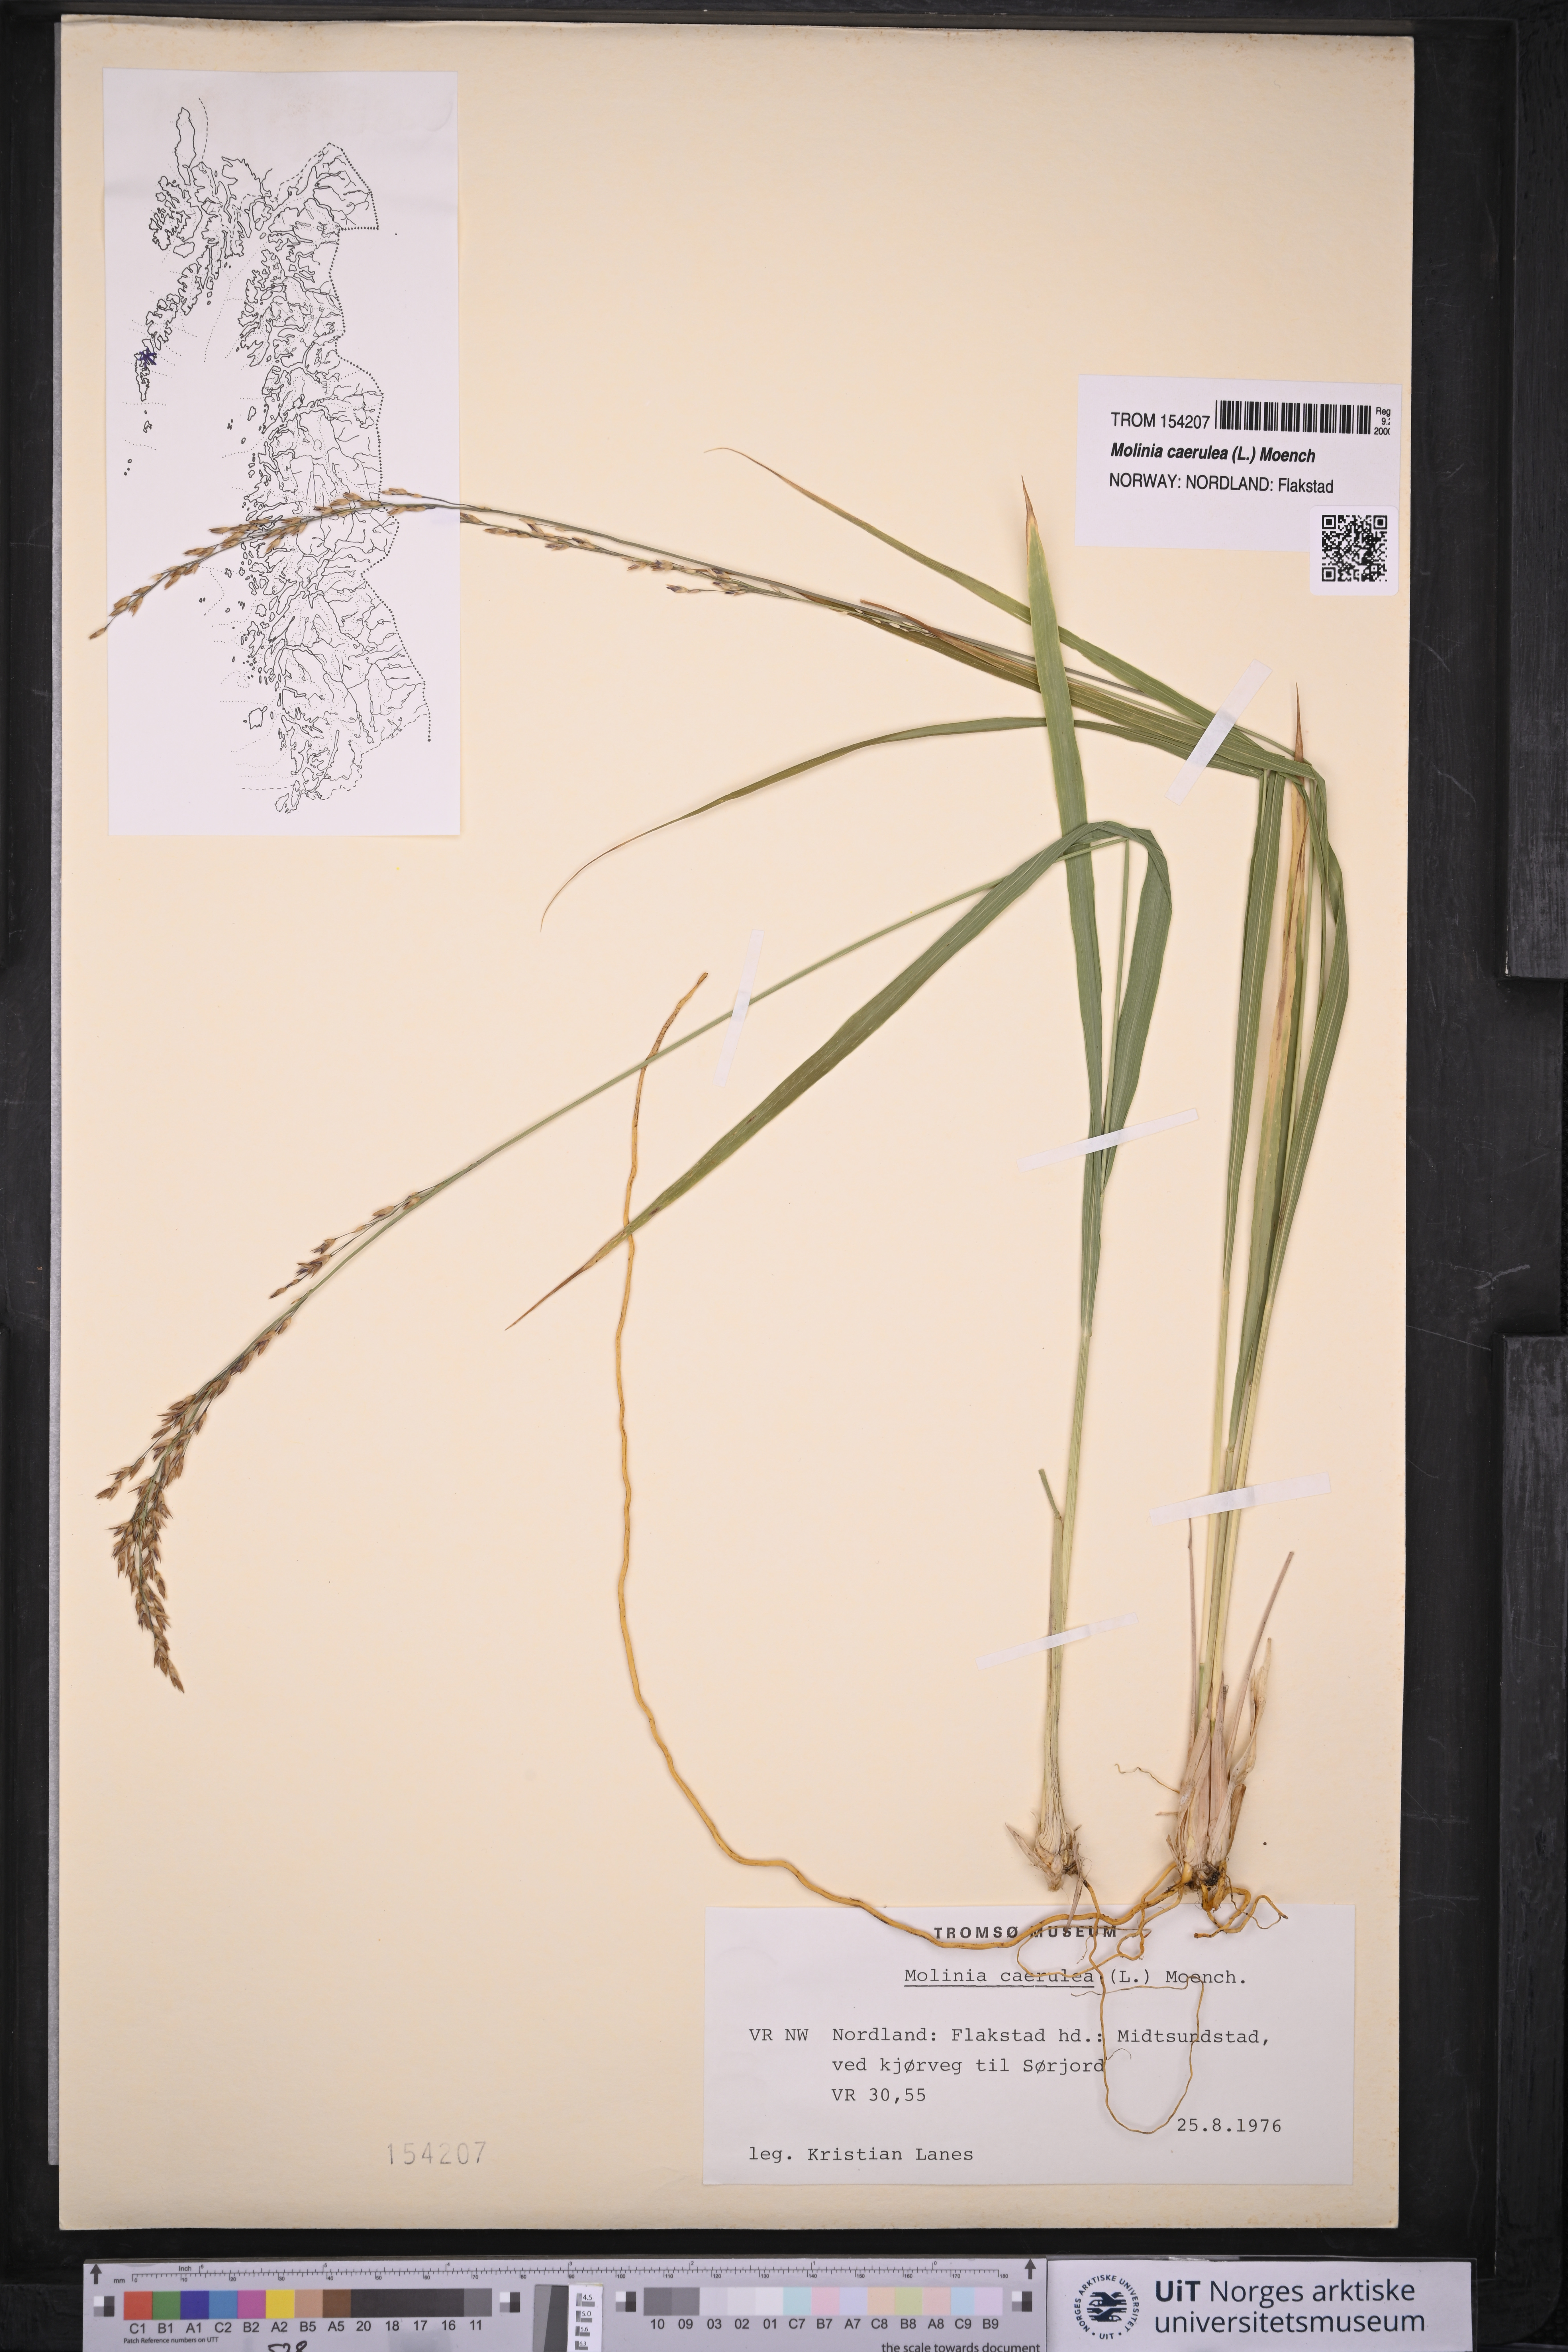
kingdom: Plantae
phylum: Tracheophyta
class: Liliopsida
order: Poales
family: Poaceae
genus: Molinia
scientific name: Molinia caerulea
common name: Purple moor-grass
